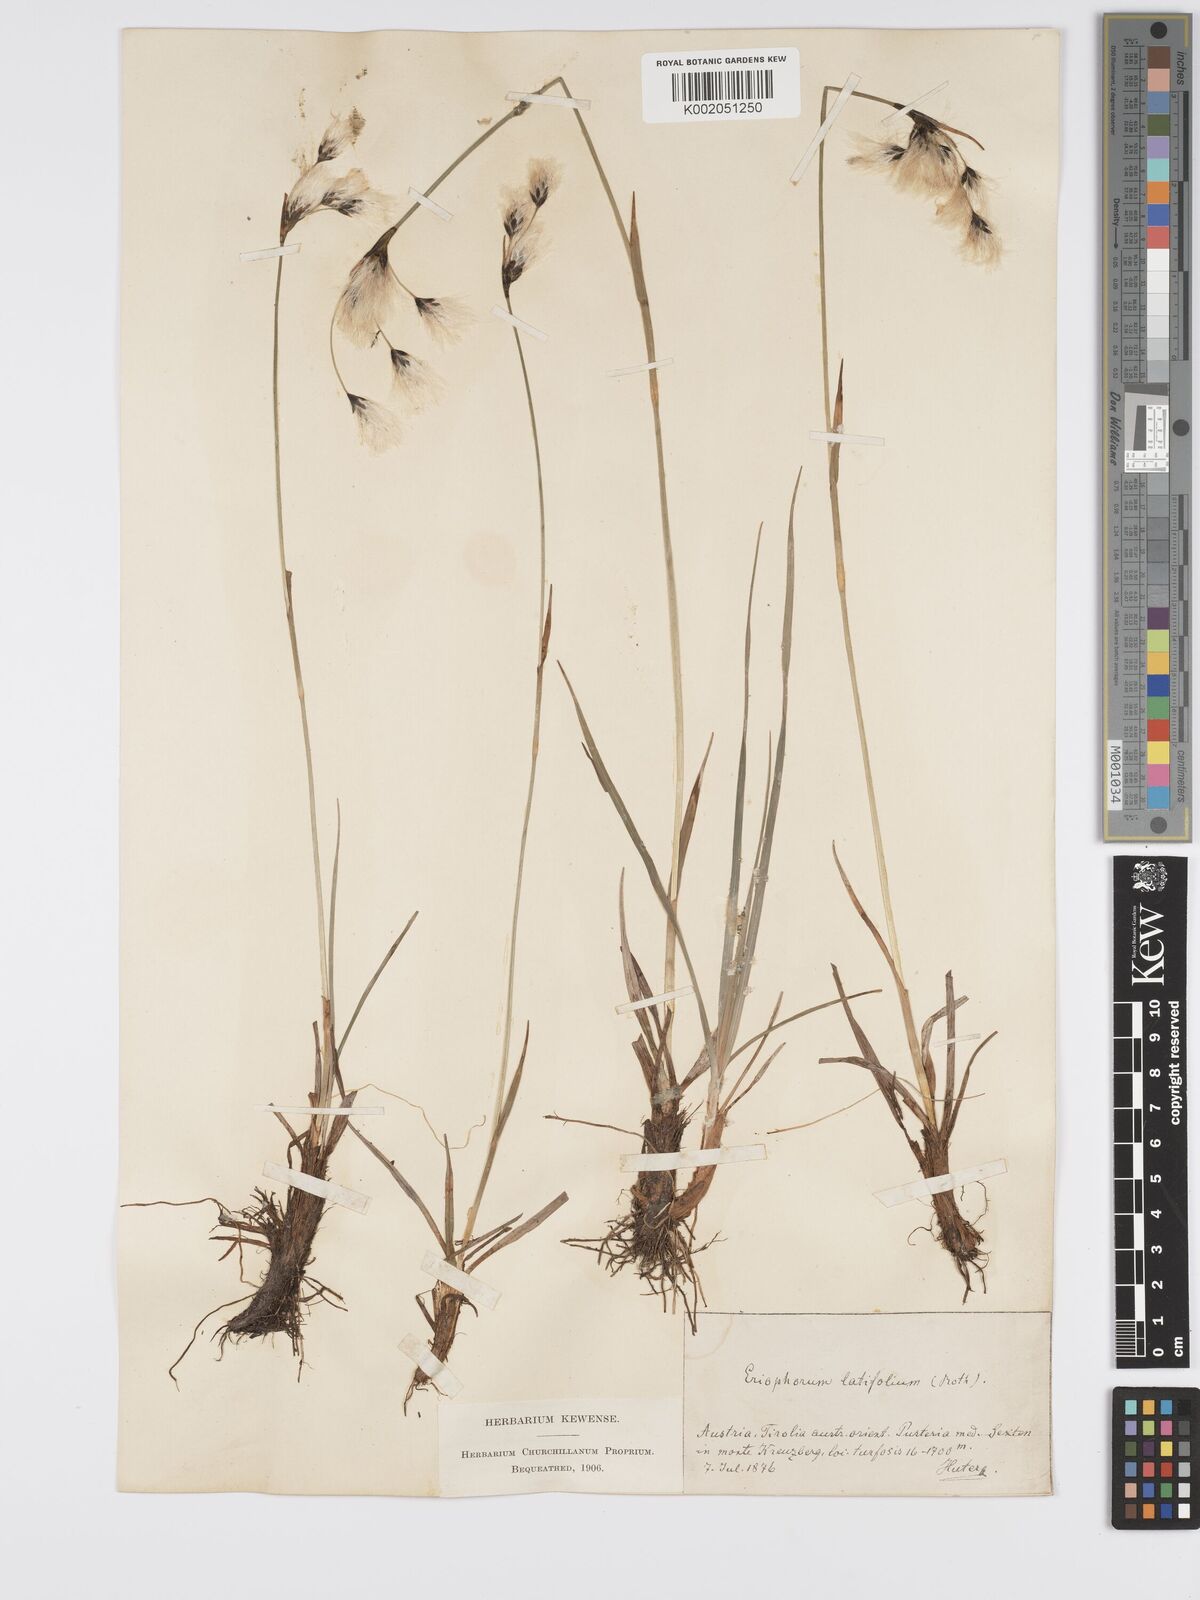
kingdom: Plantae
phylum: Tracheophyta
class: Liliopsida
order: Poales
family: Cyperaceae
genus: Eriophorum
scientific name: Eriophorum latifolium
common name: Broad-leaved cottongrass
